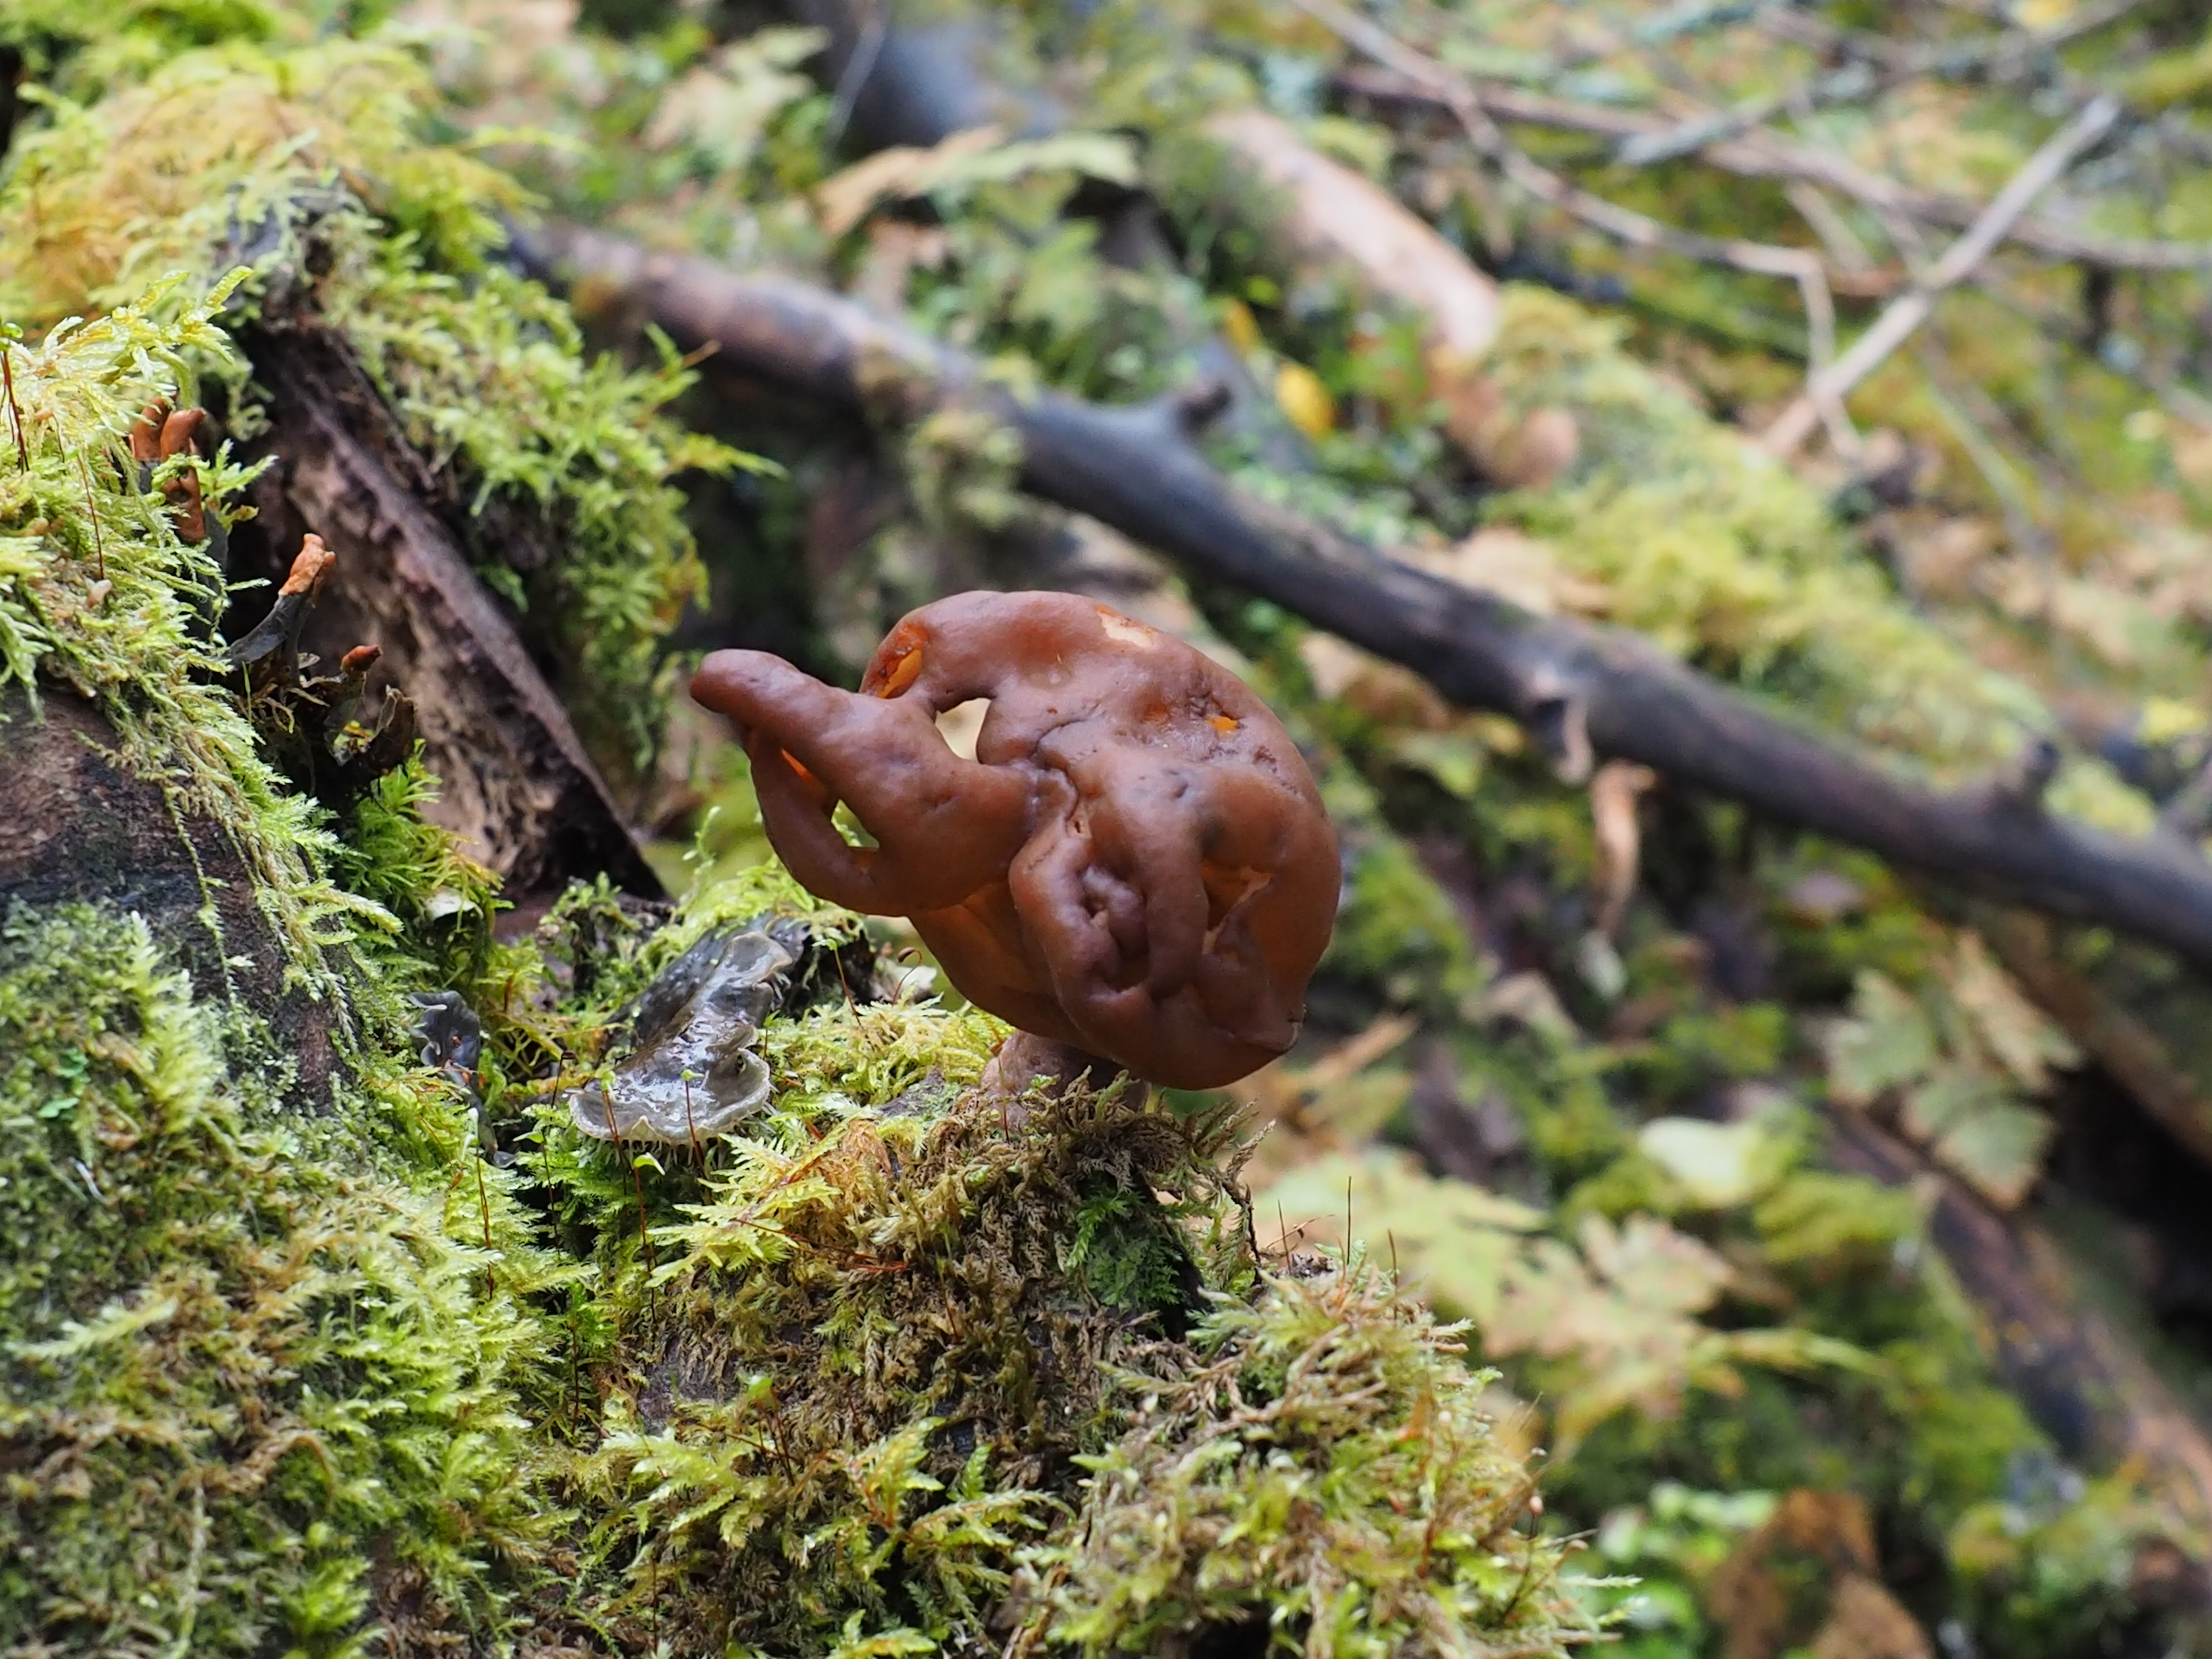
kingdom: Fungi
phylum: Ascomycota
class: Pezizomycetes
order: Pezizales
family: Discinaceae
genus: Gyromitra
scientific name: Gyromitra infula
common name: Pouched false morel
